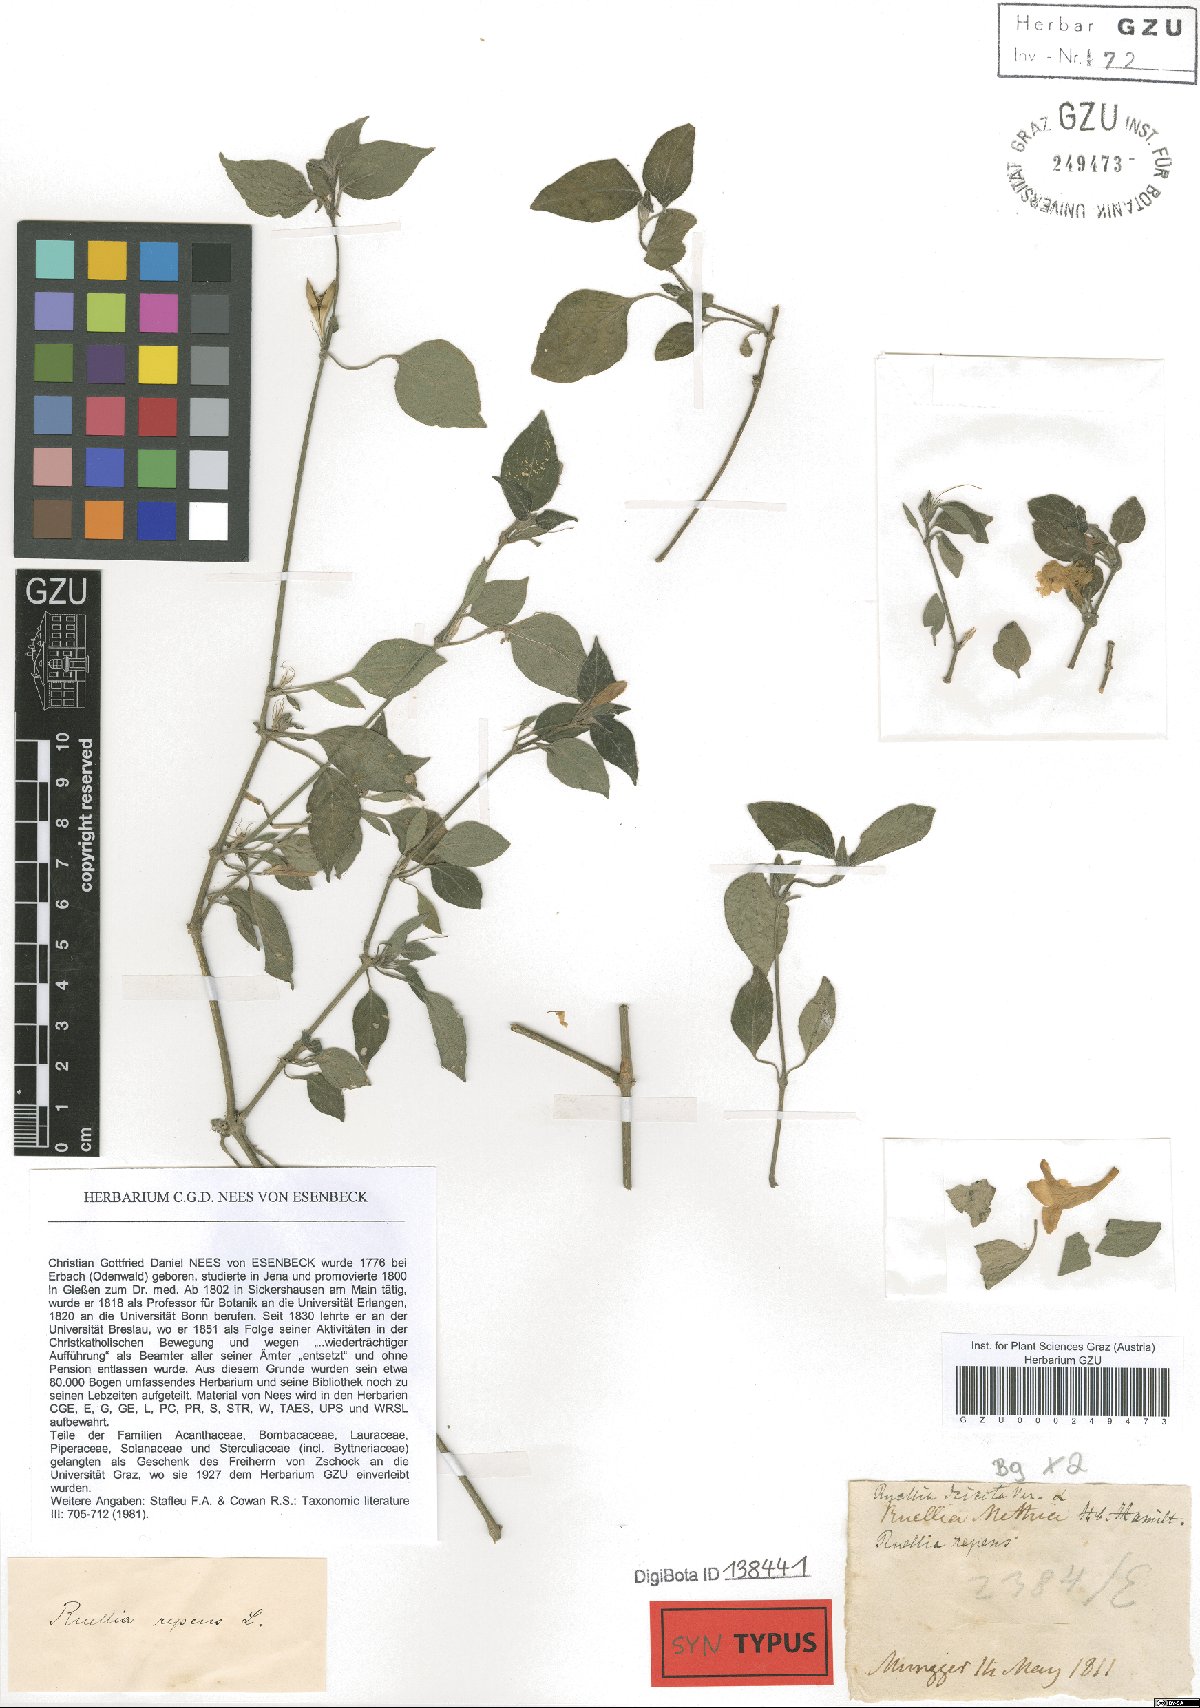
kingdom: Plantae
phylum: Tracheophyta
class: Magnoliopsida
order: Lamiales
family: Acanthaceae
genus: Ruellia
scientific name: Ruellia prostrata
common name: Prostrate wild petunia
